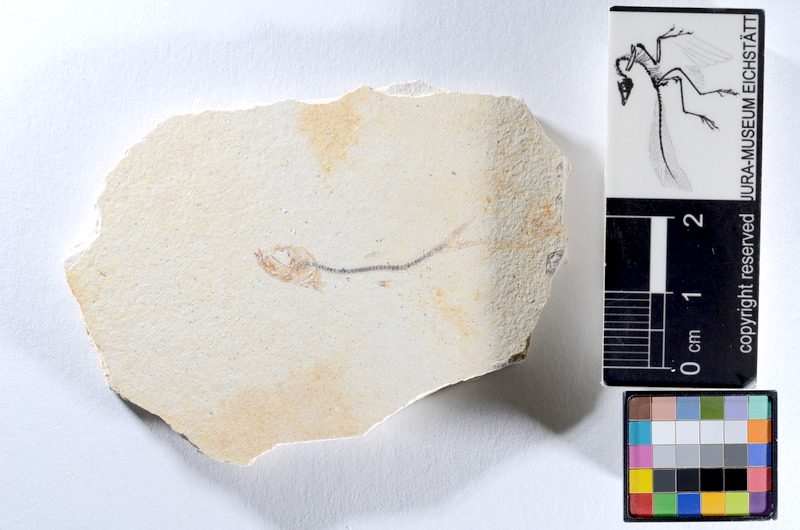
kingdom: Animalia
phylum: Chordata
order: Salmoniformes
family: Orthogonikleithridae
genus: Orthogonikleithrus
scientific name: Orthogonikleithrus hoelli
